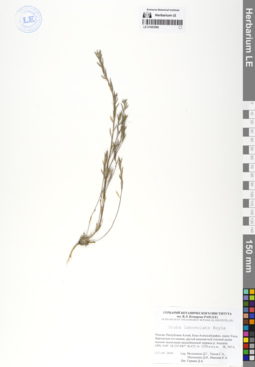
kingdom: Plantae
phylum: Tracheophyta
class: Magnoliopsida
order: Brassicales
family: Brassicaceae
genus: Draba
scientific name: Draba lanceolata
